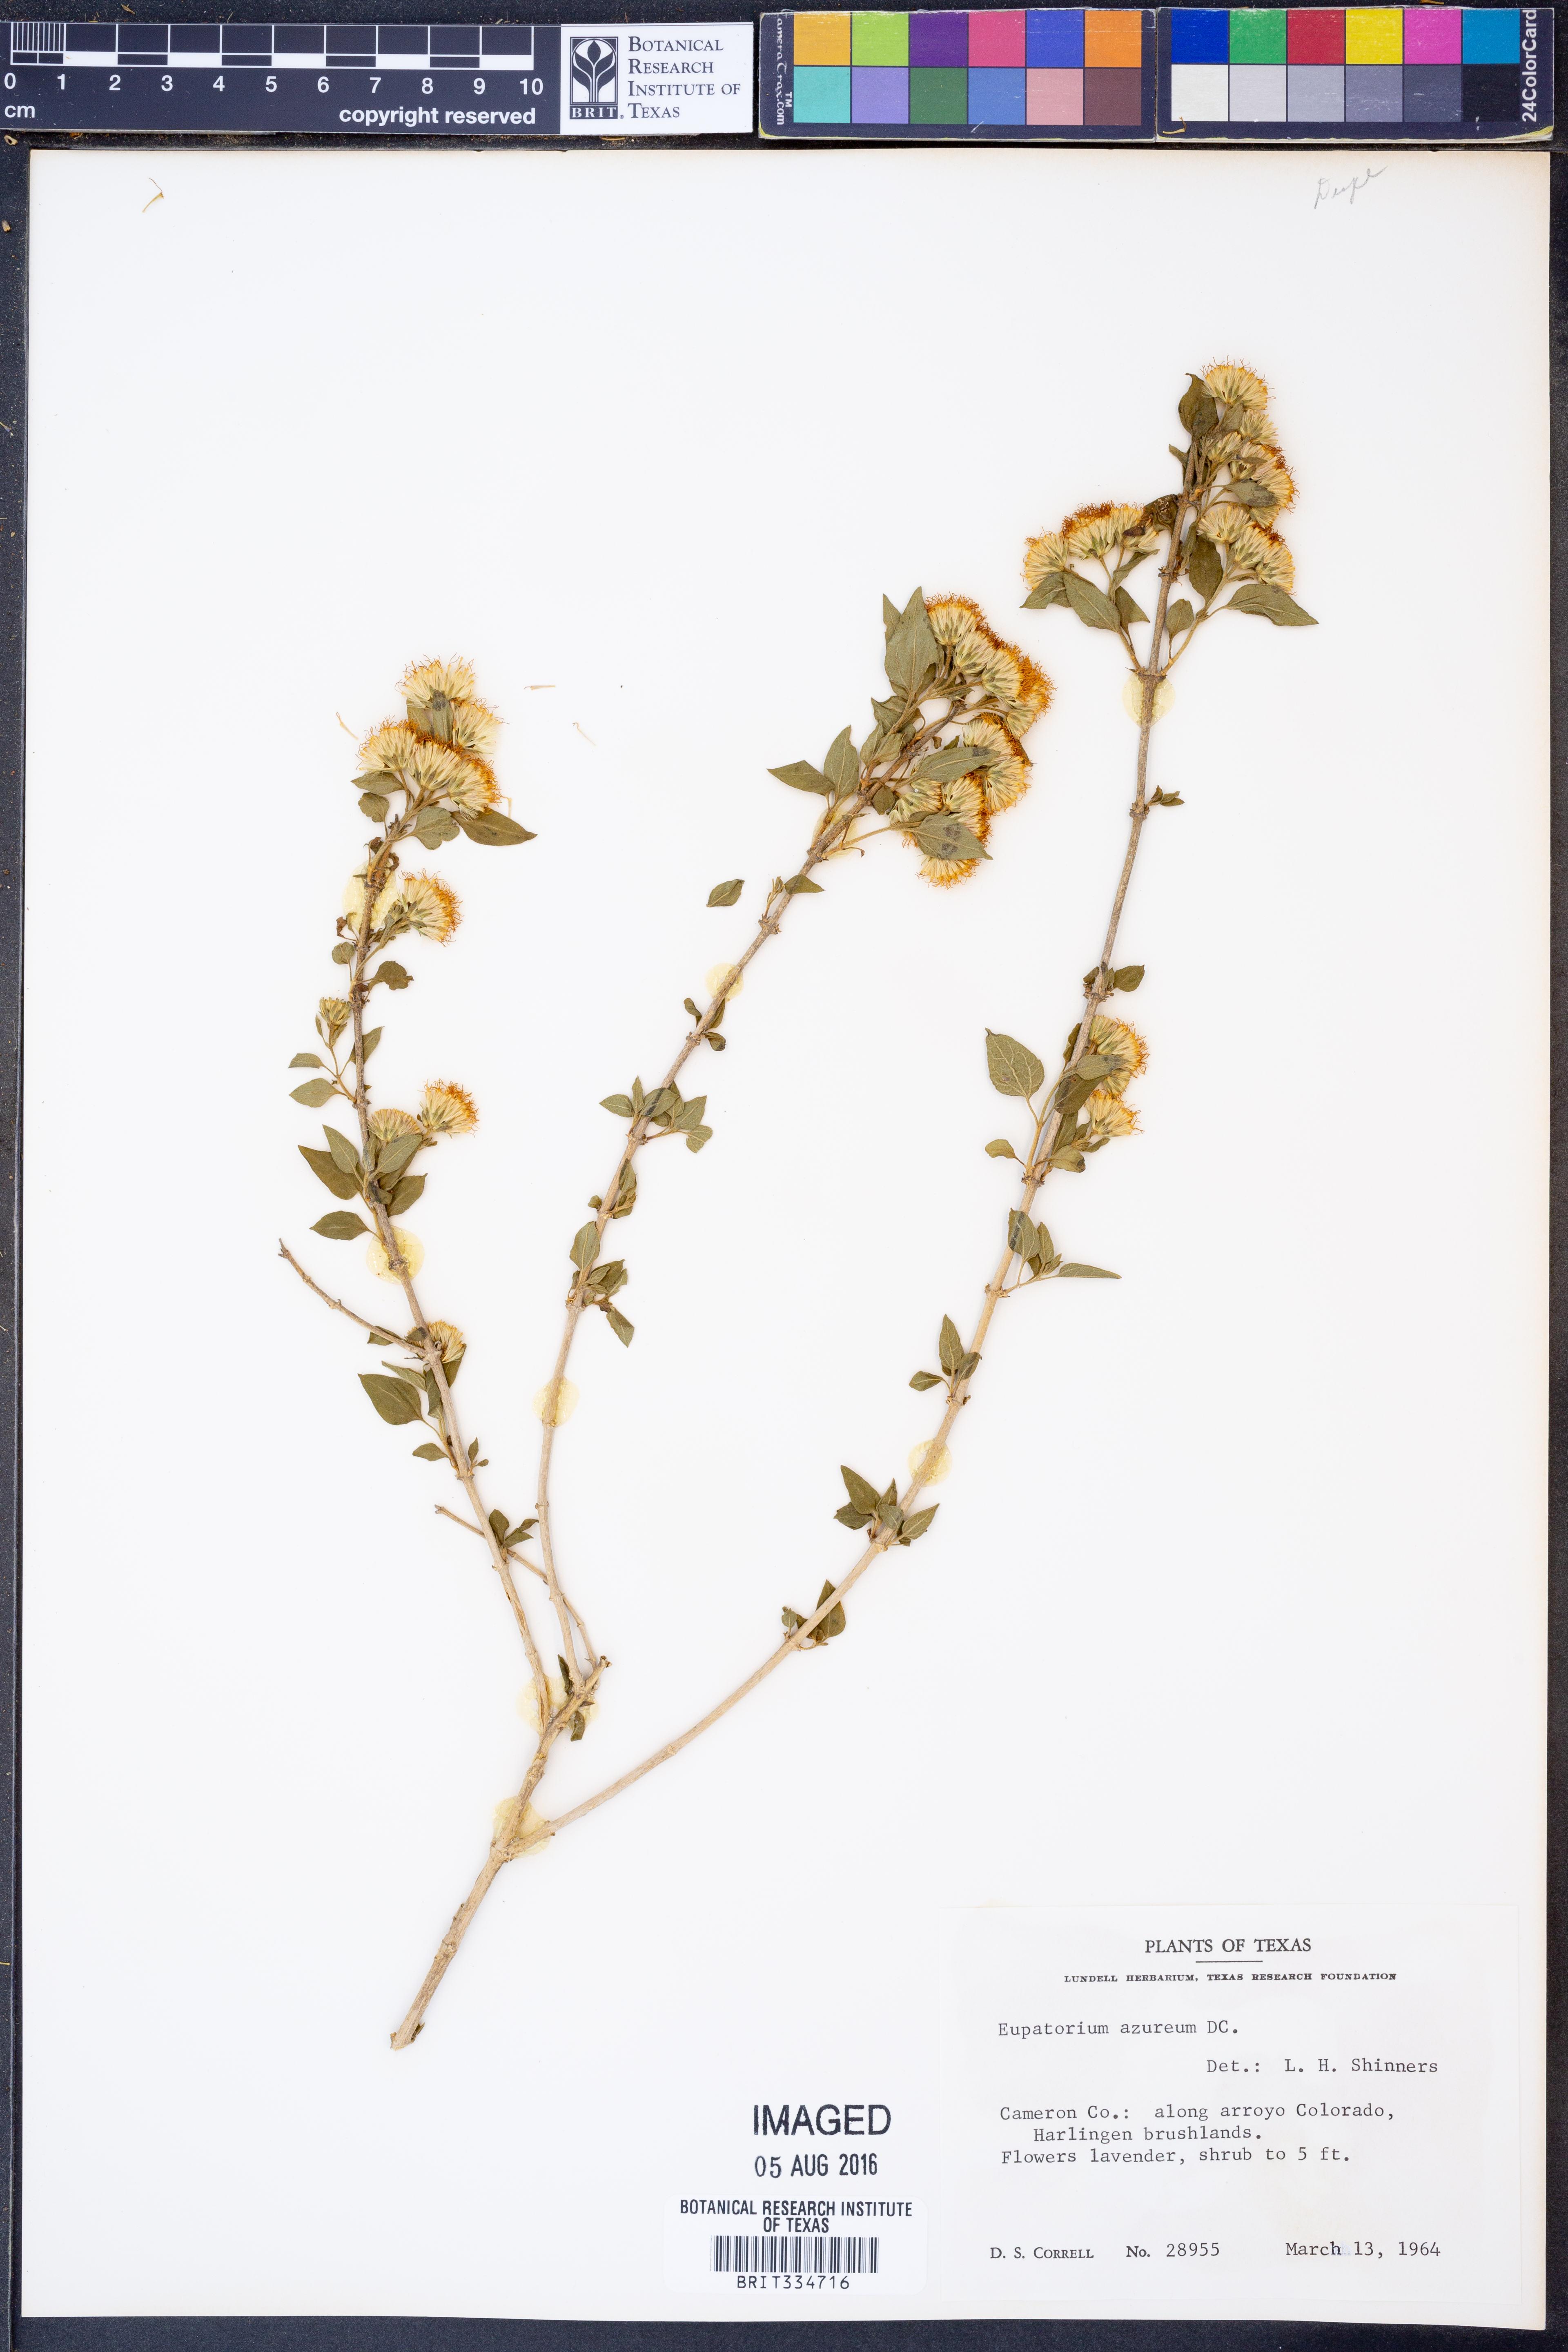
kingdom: Plantae
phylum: Tracheophyta
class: Magnoliopsida
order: Asterales
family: Asteraceae
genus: Tamaulipa
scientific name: Tamaulipa azurea
